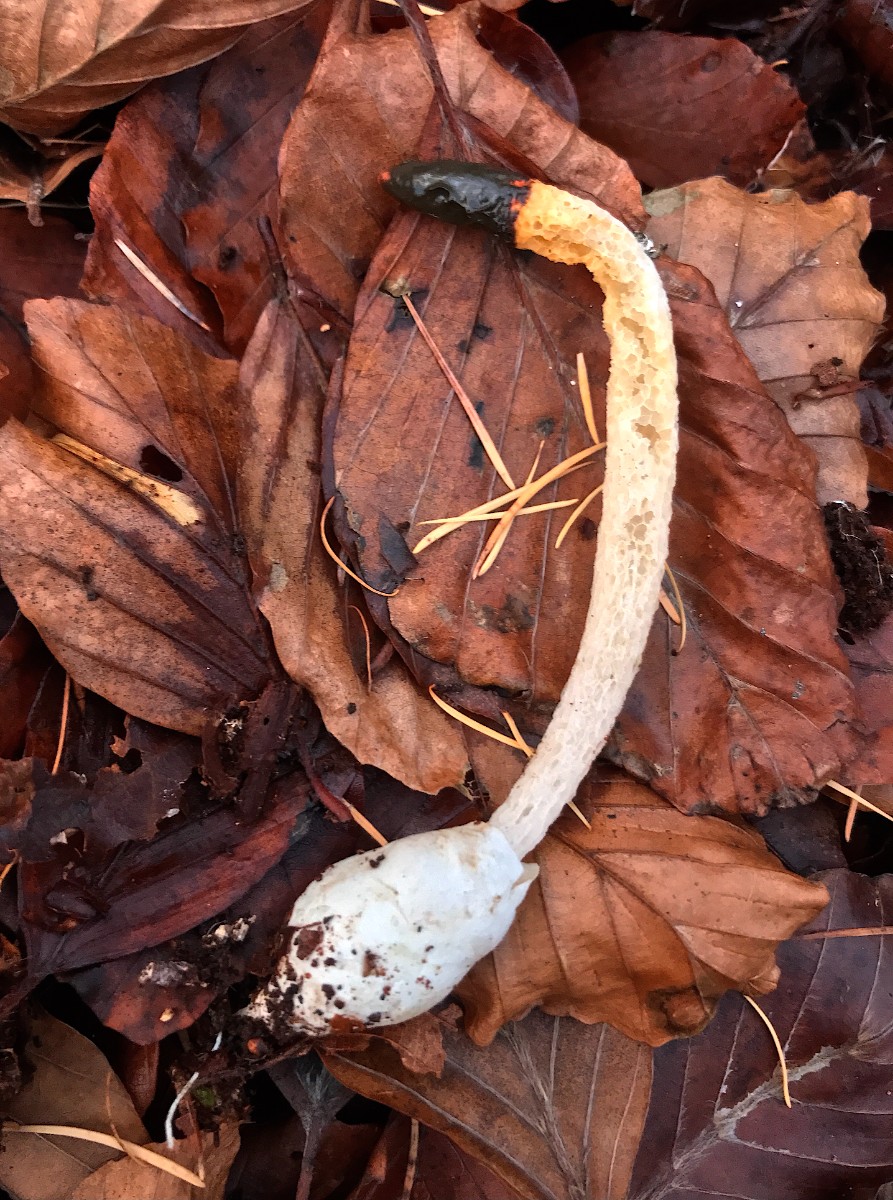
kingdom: Fungi
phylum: Basidiomycota
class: Agaricomycetes
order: Phallales
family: Phallaceae
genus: Mutinus
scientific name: Mutinus caninus
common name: hunde-stinksvamp
